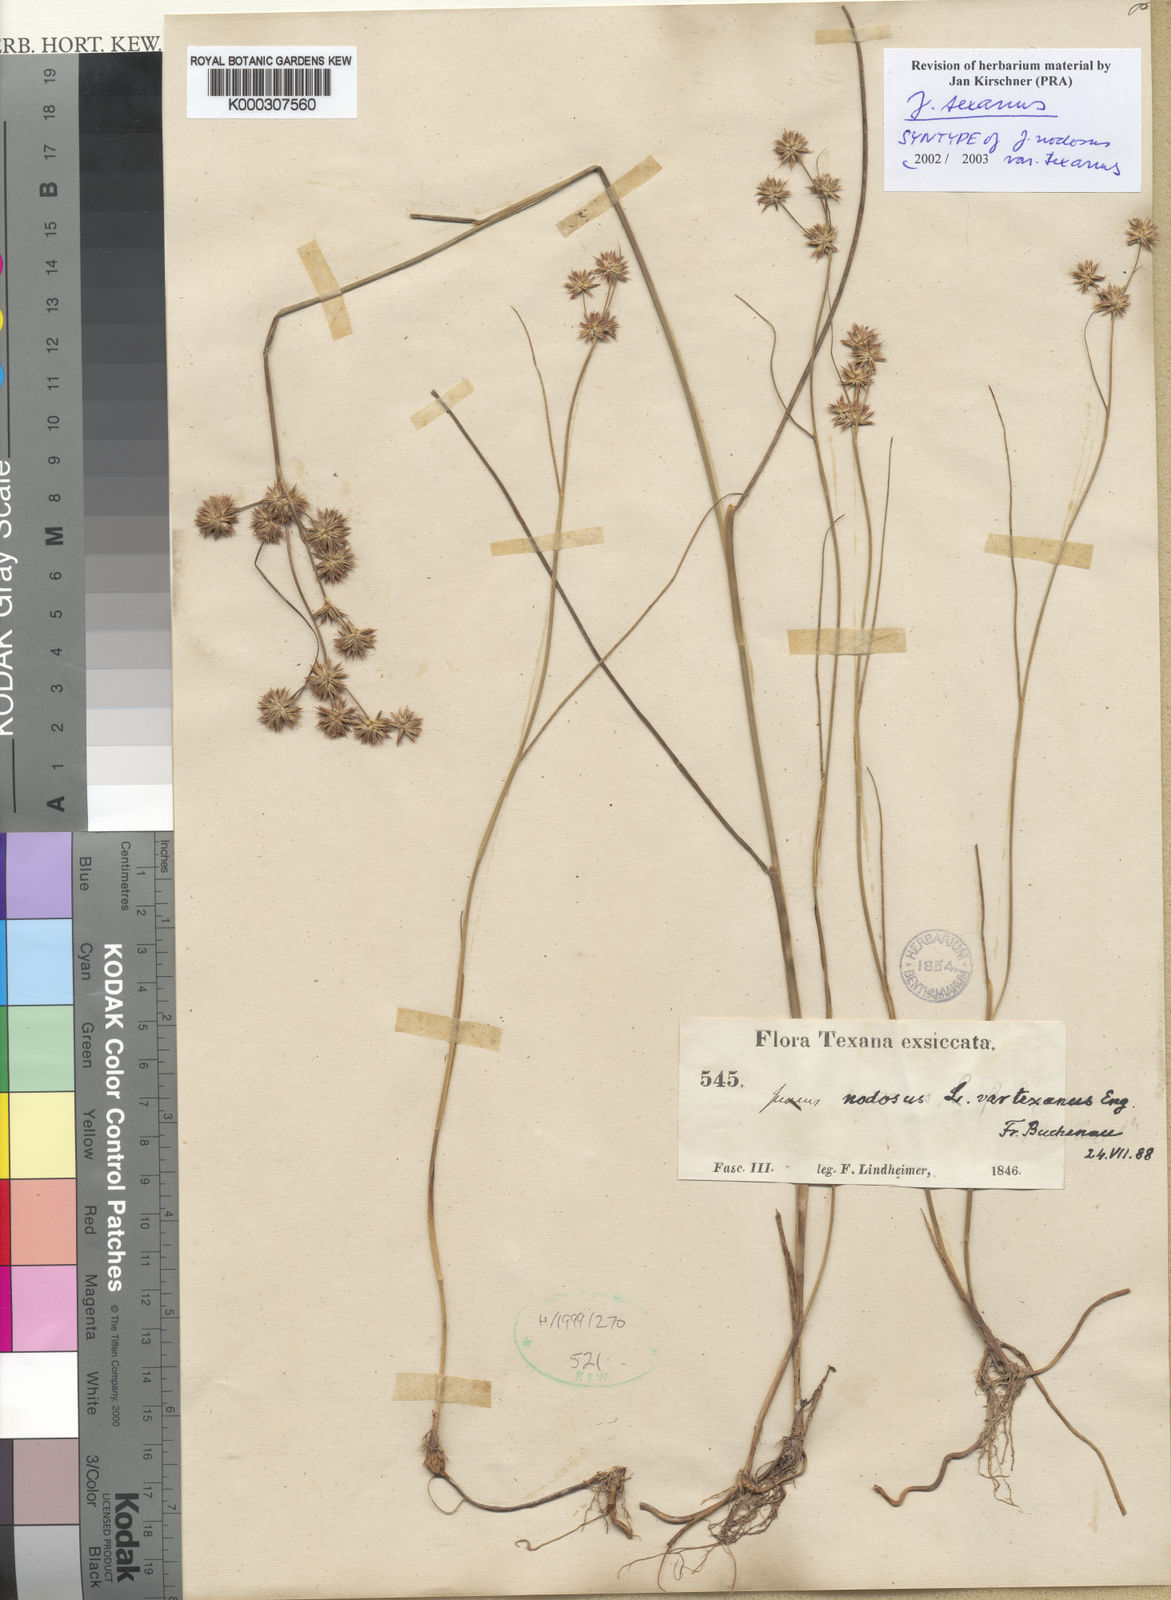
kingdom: Plantae
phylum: Tracheophyta
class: Liliopsida
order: Poales
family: Juncaceae
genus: Juncus
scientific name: Juncus texanus
